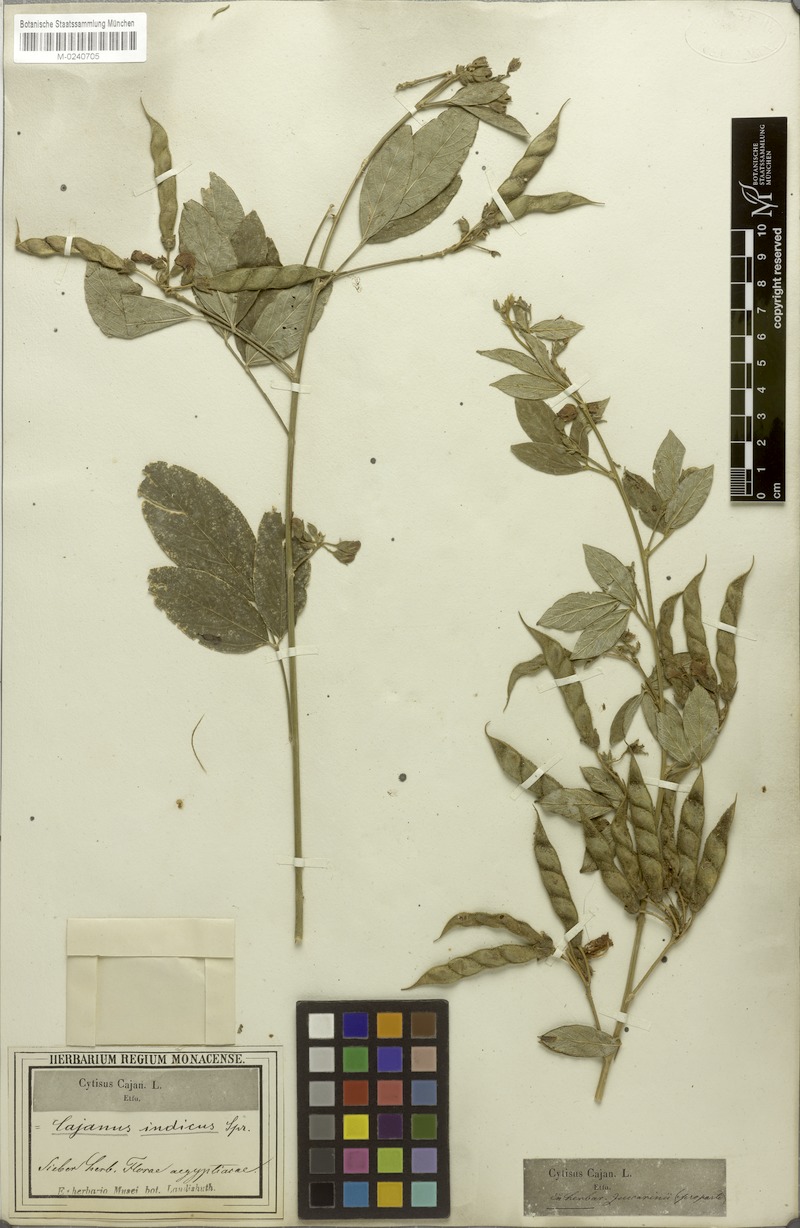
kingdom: Plantae
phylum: Tracheophyta
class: Magnoliopsida
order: Fabales
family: Fabaceae
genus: Cajanus
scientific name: Cajanus cajan
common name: Pigeonpea
